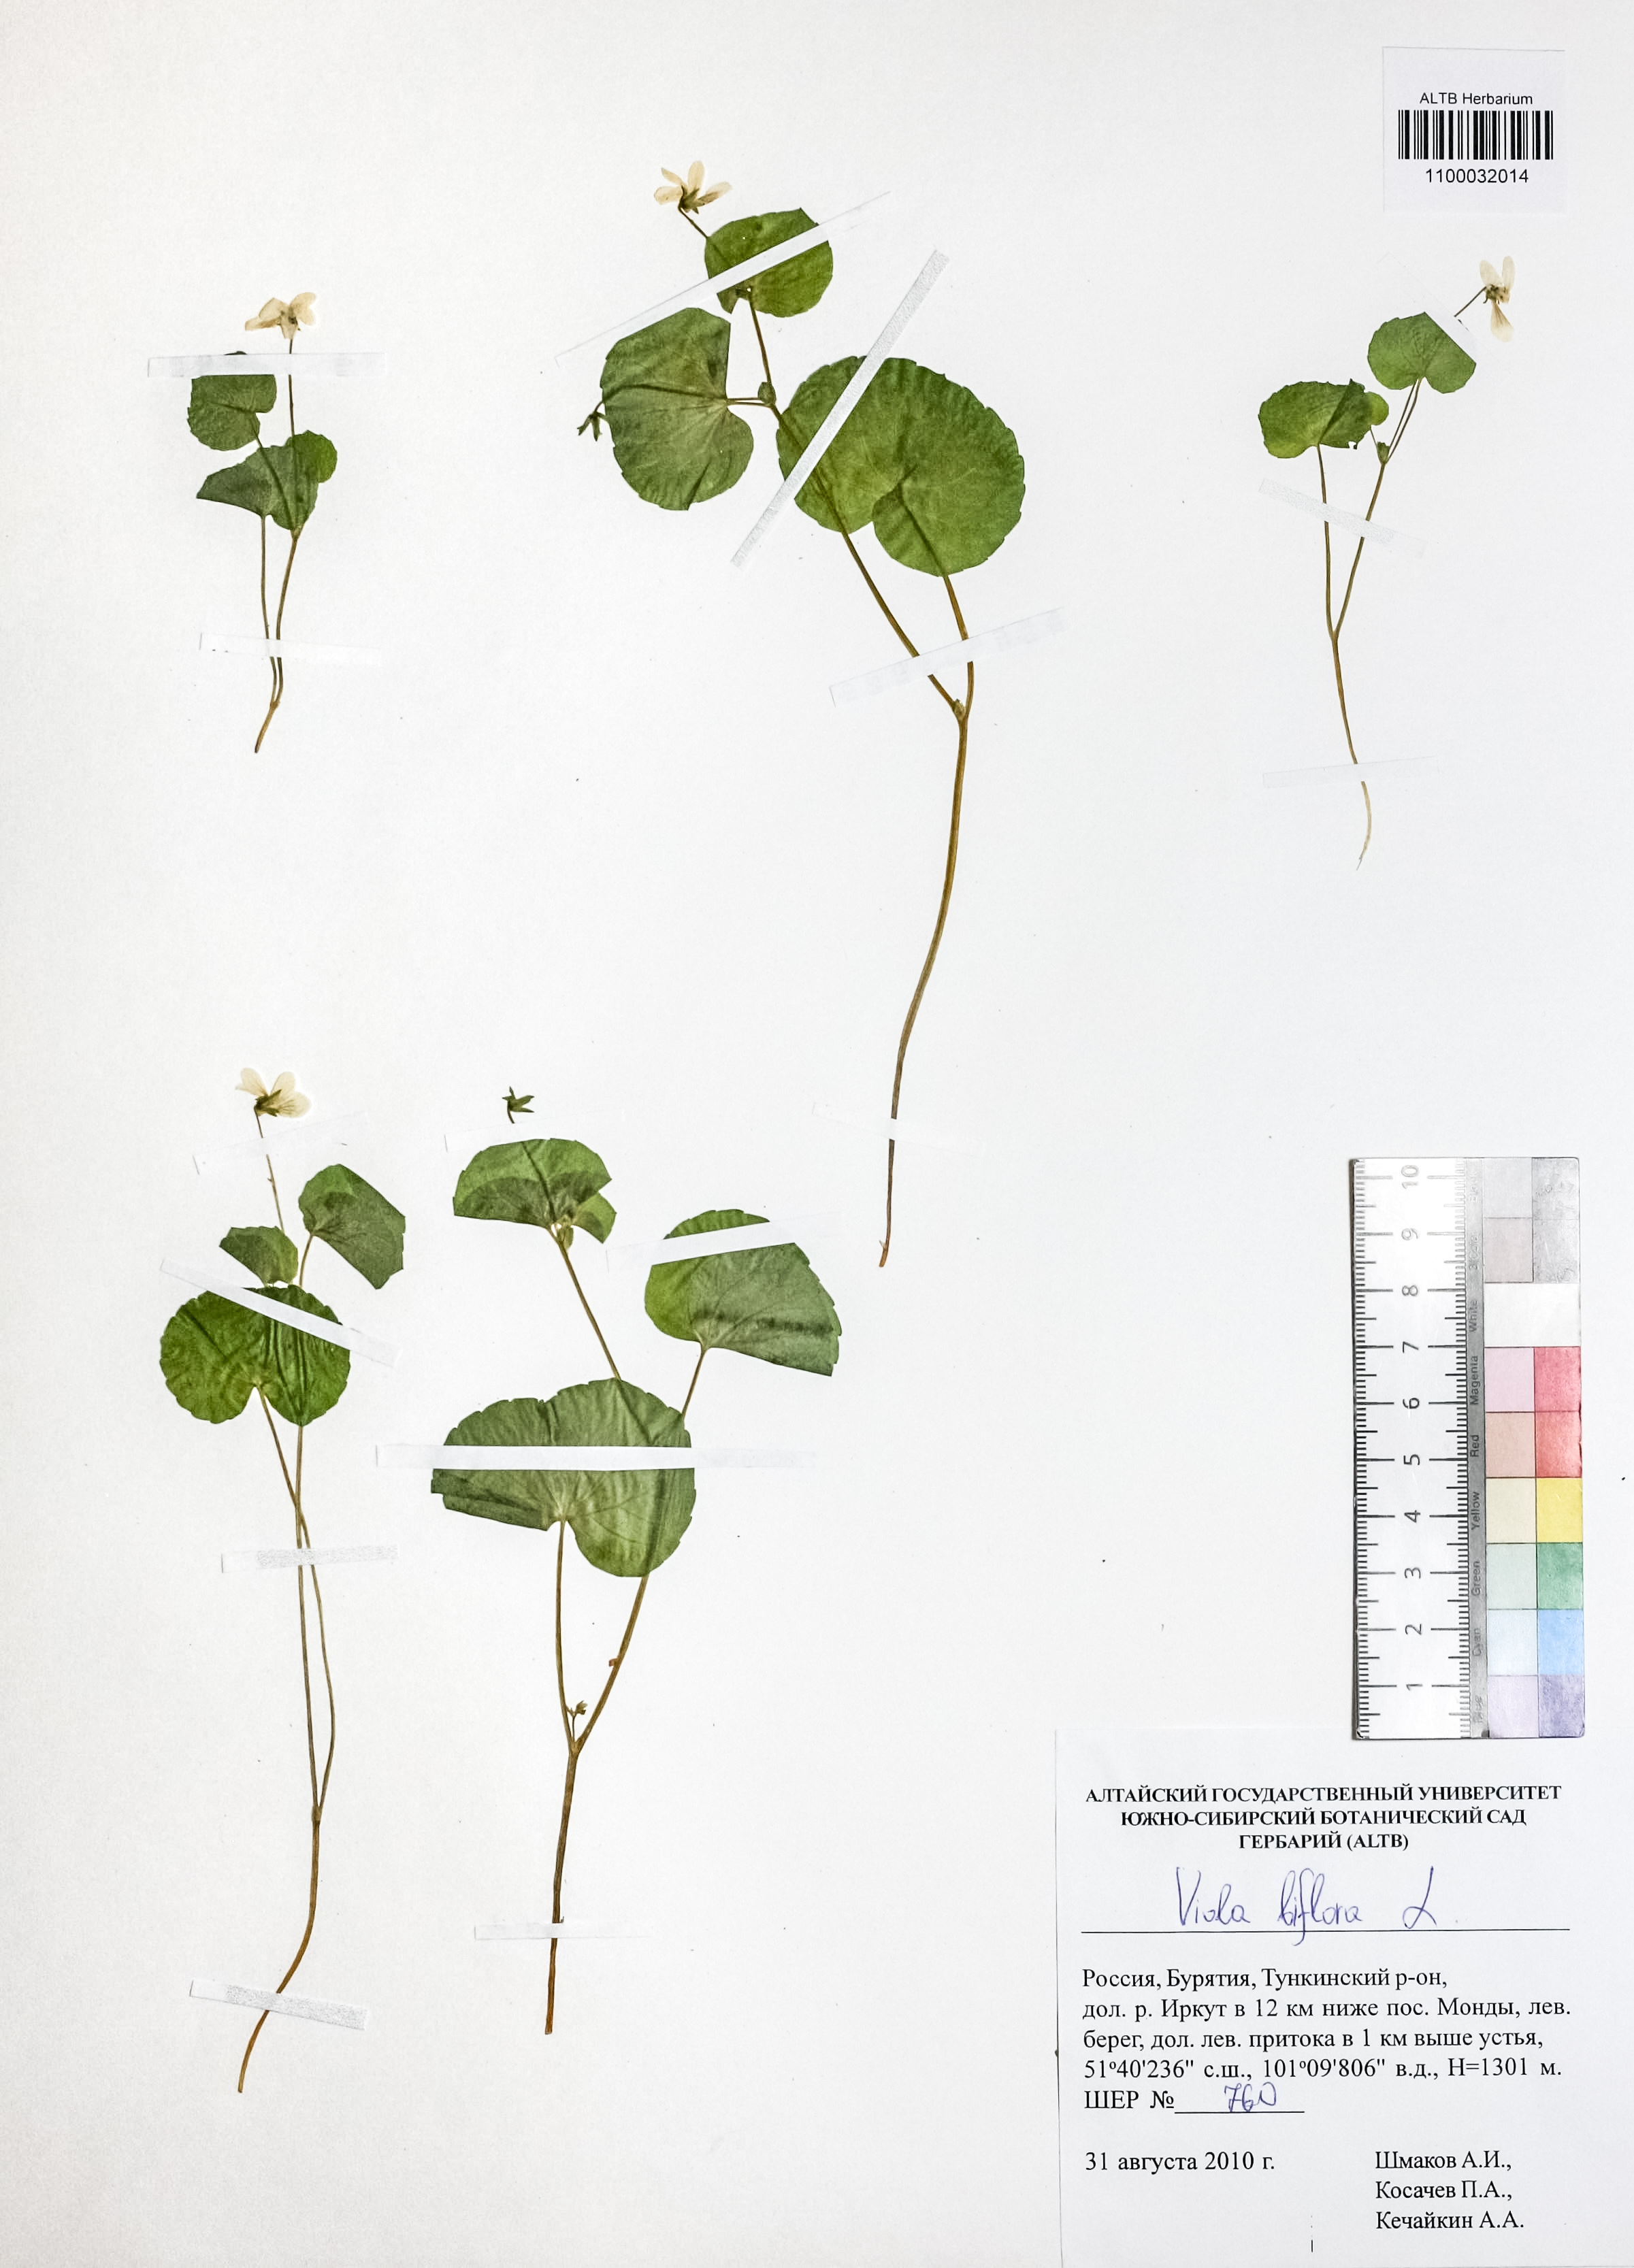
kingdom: Plantae
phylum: Tracheophyta
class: Magnoliopsida
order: Malpighiales
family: Violaceae
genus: Viola
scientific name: Viola biflora
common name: Alpine yellow violet
